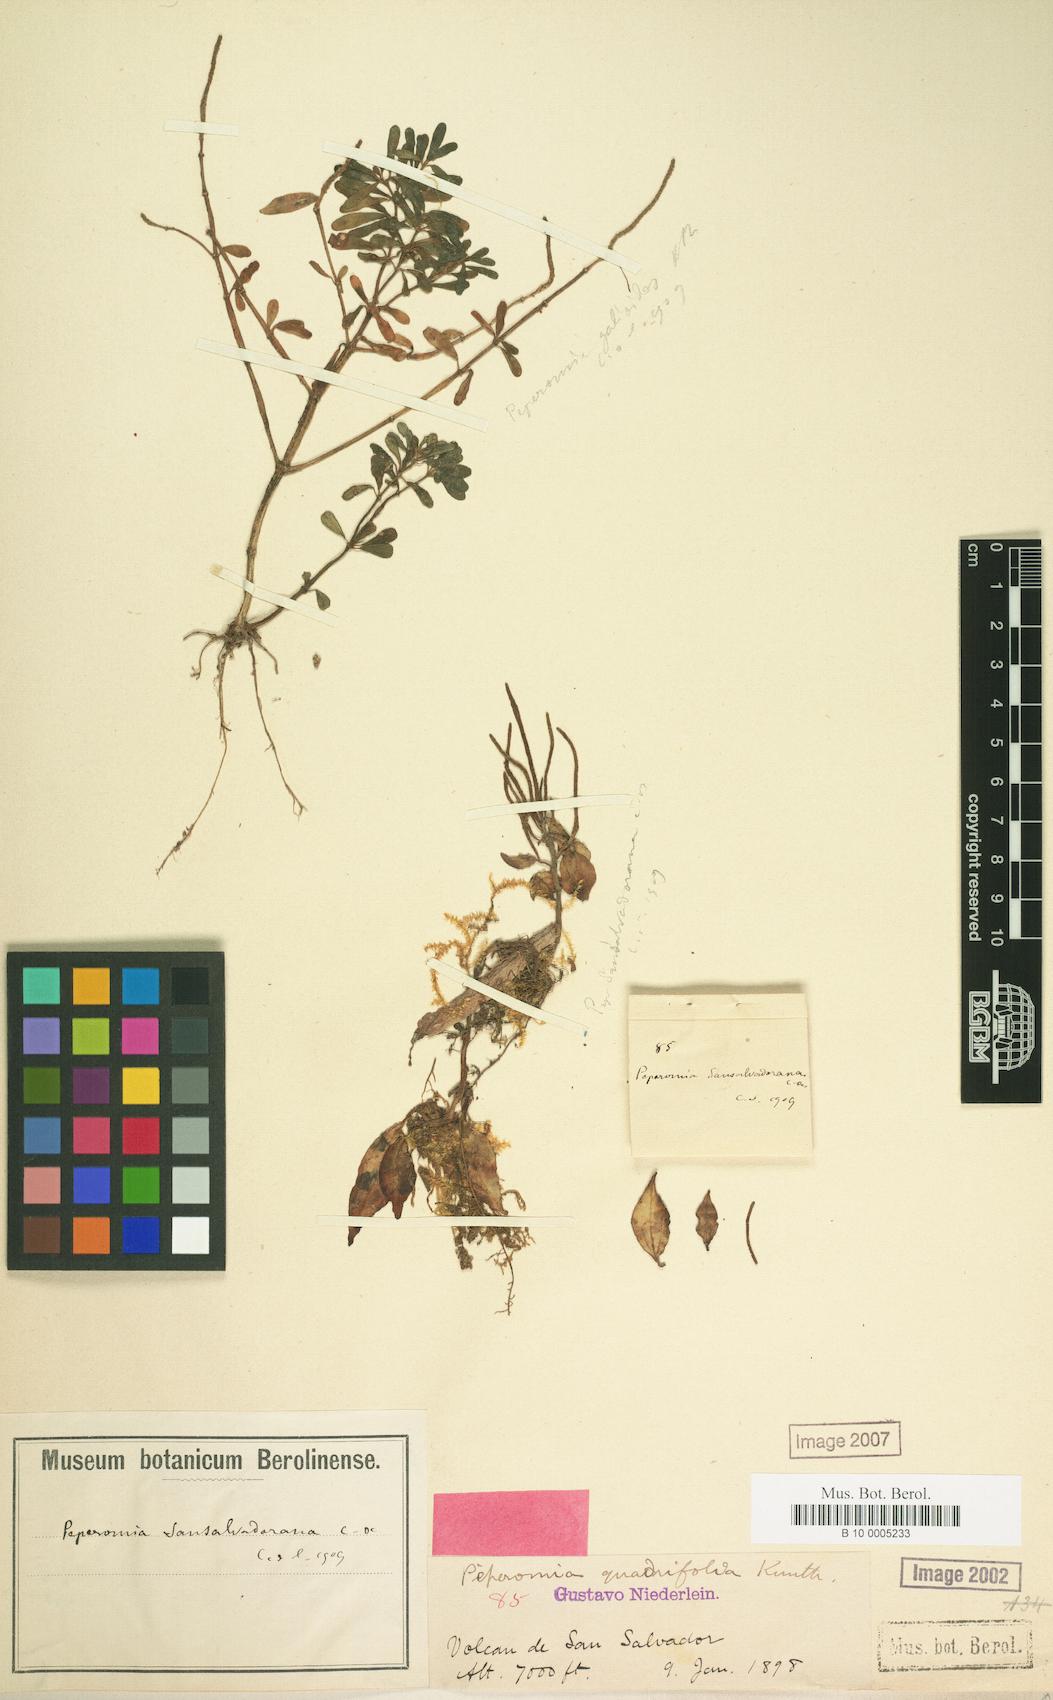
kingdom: Plantae
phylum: Tracheophyta
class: Magnoliopsida
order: Piperales
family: Piperaceae
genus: Peperomia
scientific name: Peperomia sansalvadorana
